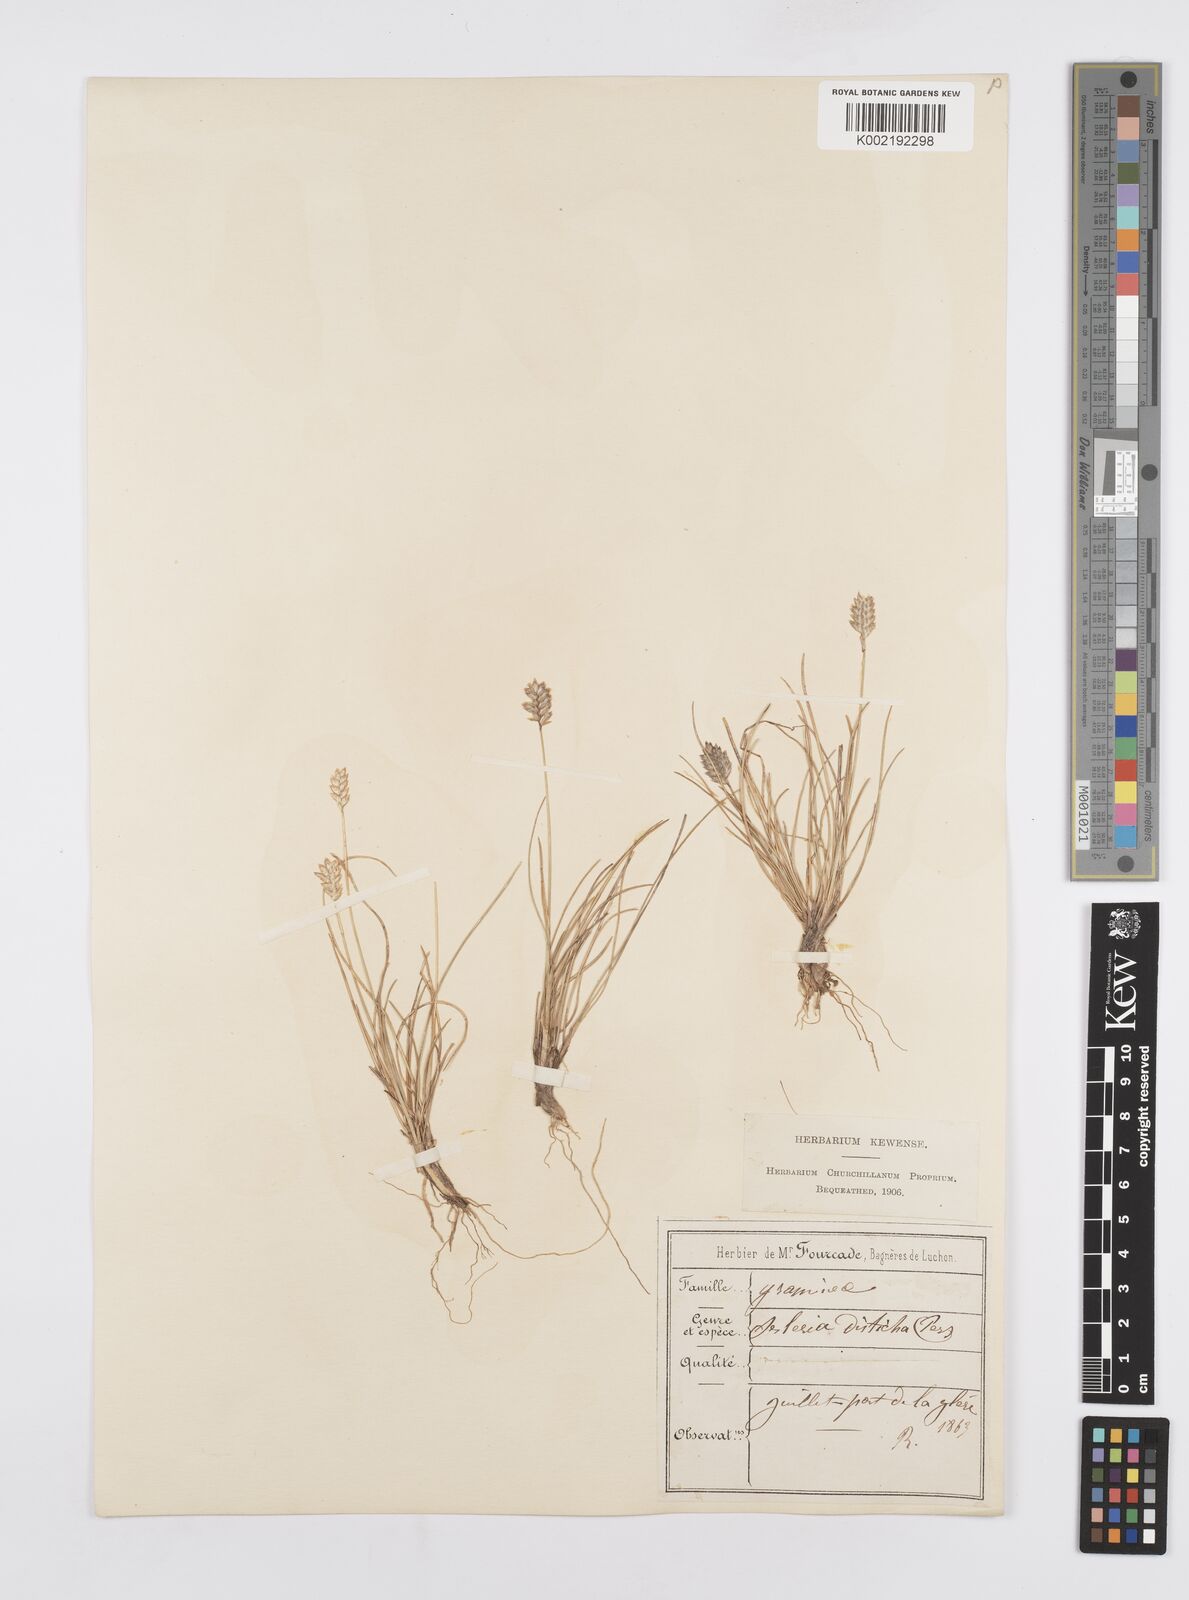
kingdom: Plantae
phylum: Tracheophyta
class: Liliopsida
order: Poales
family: Poaceae
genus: Oreochloa
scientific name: Oreochloa disticha
